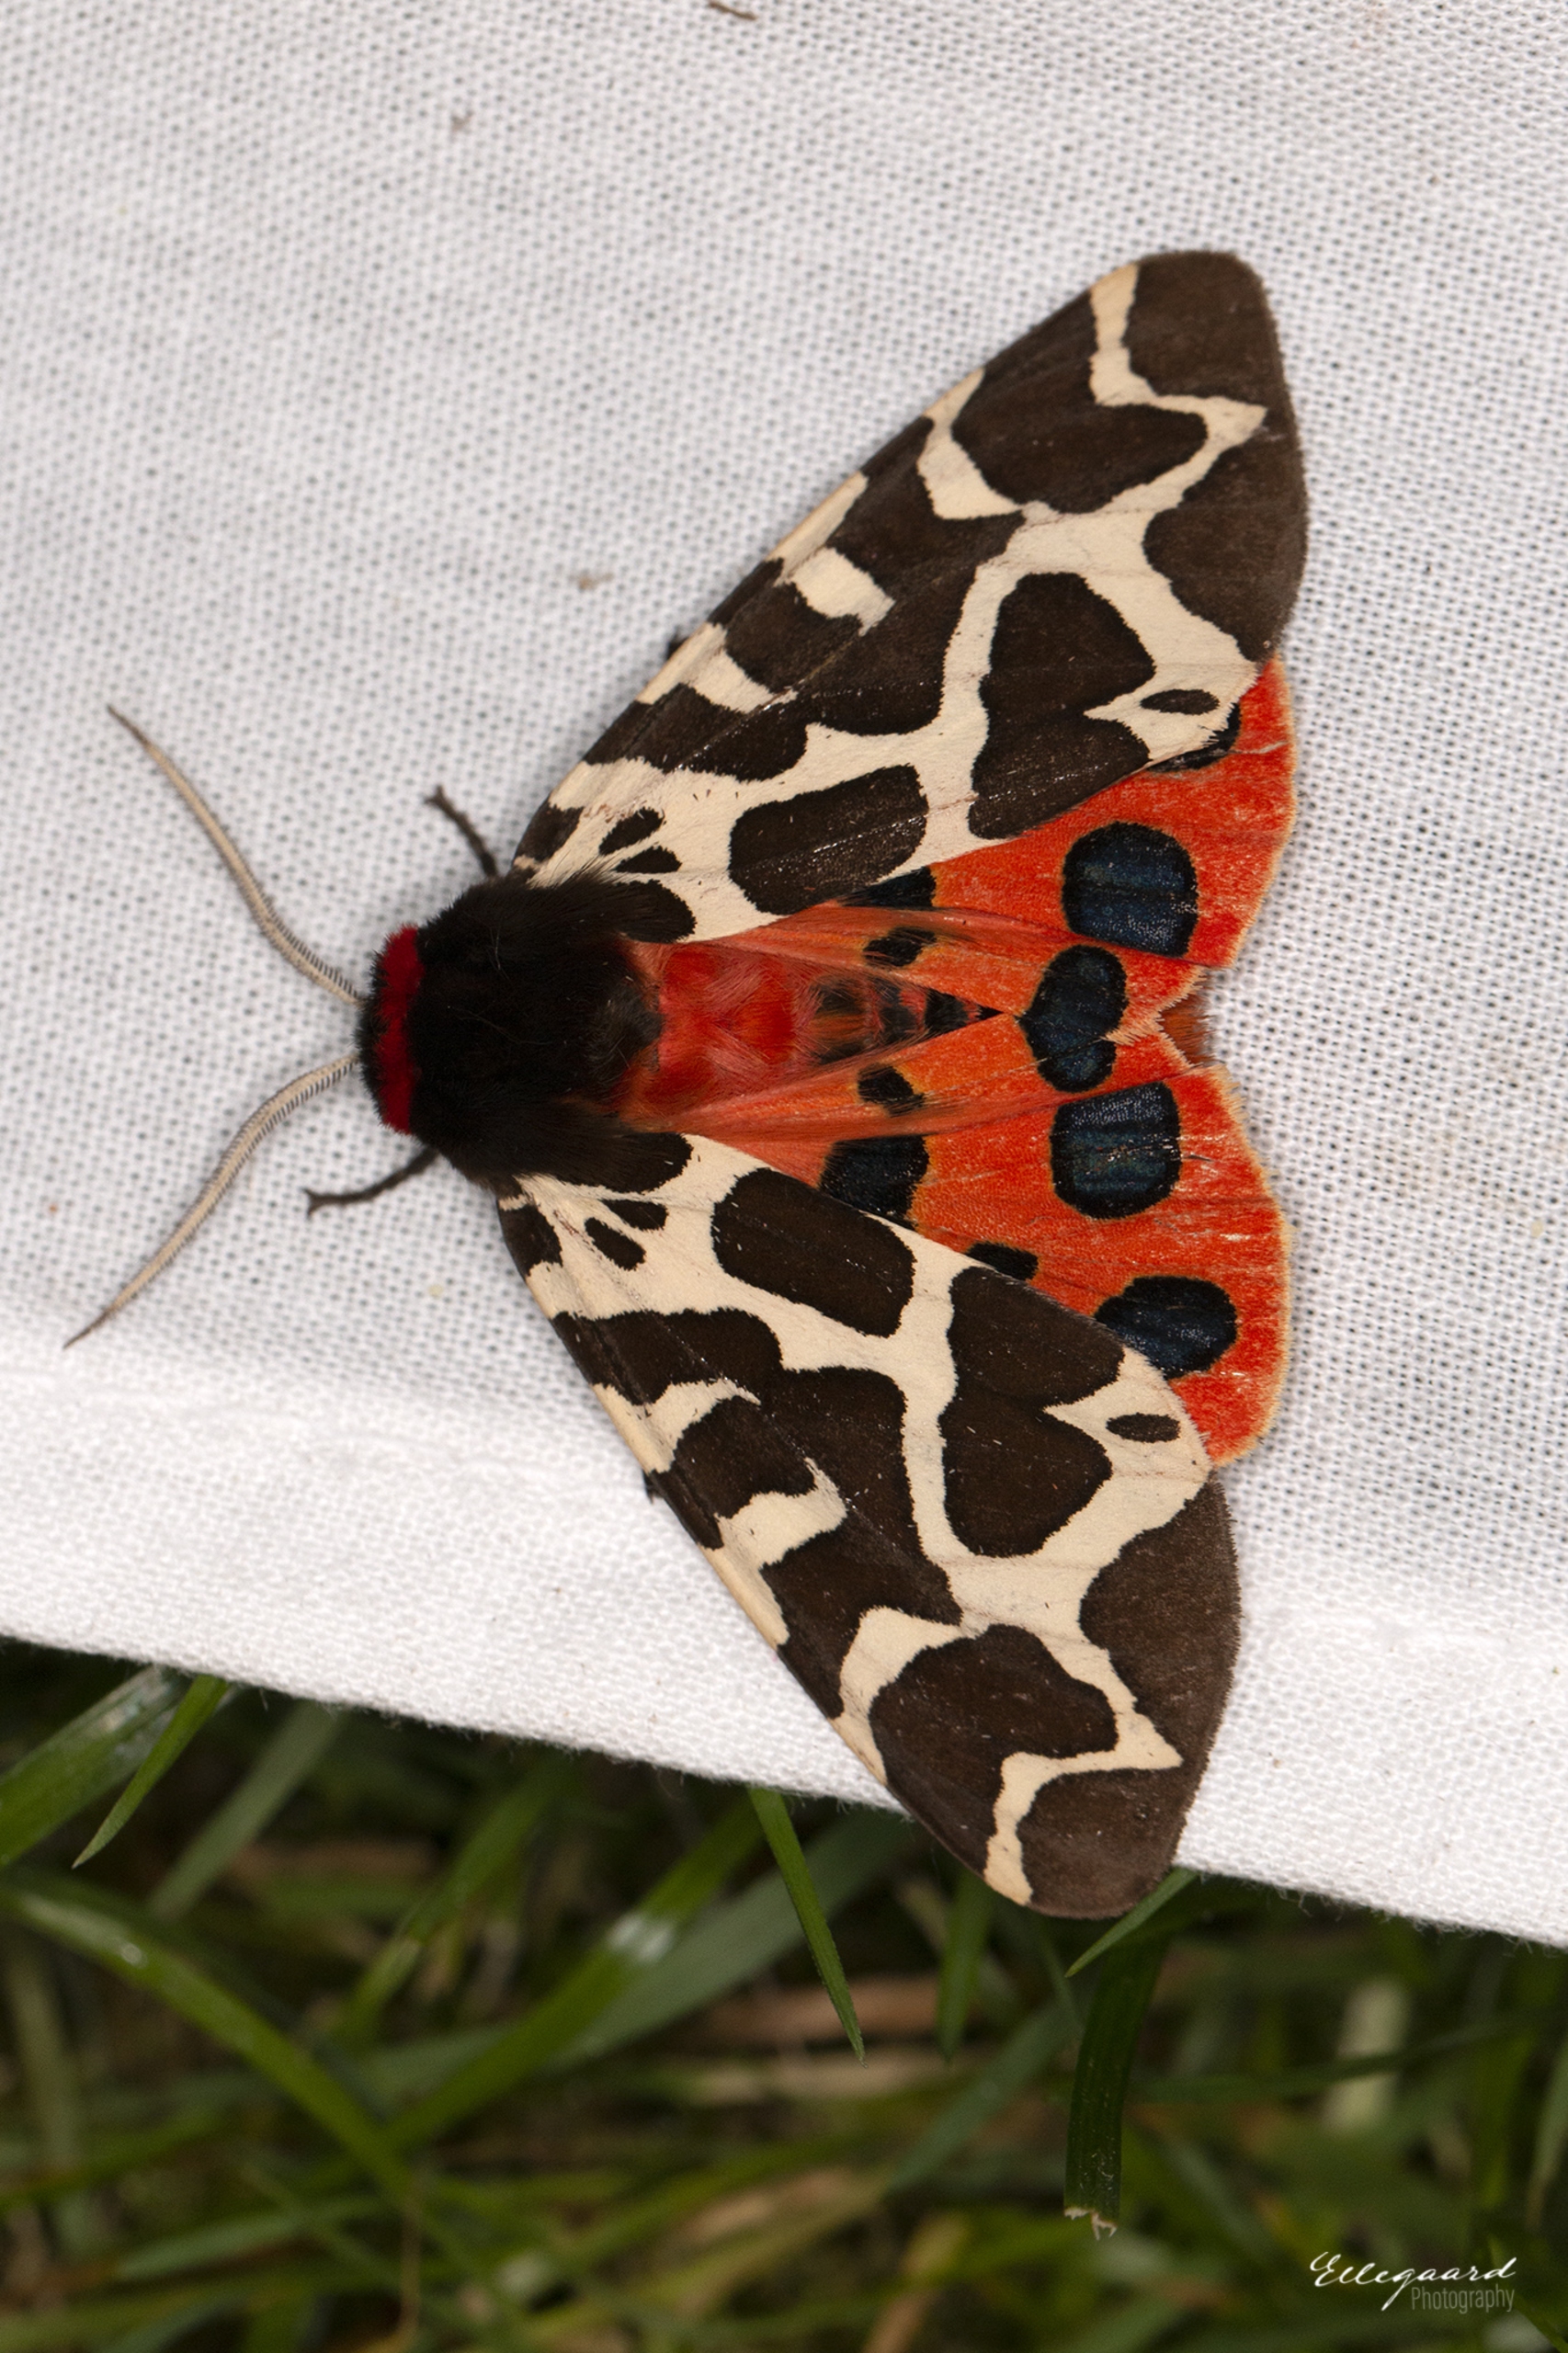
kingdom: Animalia
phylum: Arthropoda
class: Insecta
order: Lepidoptera
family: Erebidae
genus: Arctia
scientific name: Arctia caja
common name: Brun bjørn
